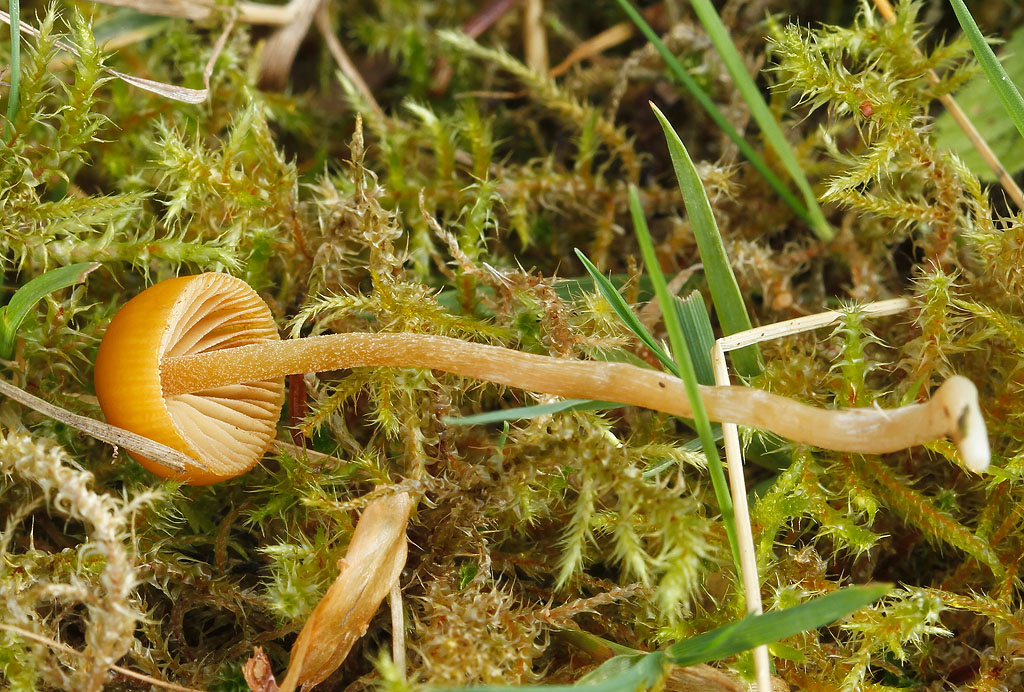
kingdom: Fungi
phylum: Basidiomycota
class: Agaricomycetes
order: Agaricales
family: Hymenogastraceae
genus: Galerina
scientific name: Galerina pumila
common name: honninggul hjelmhat
